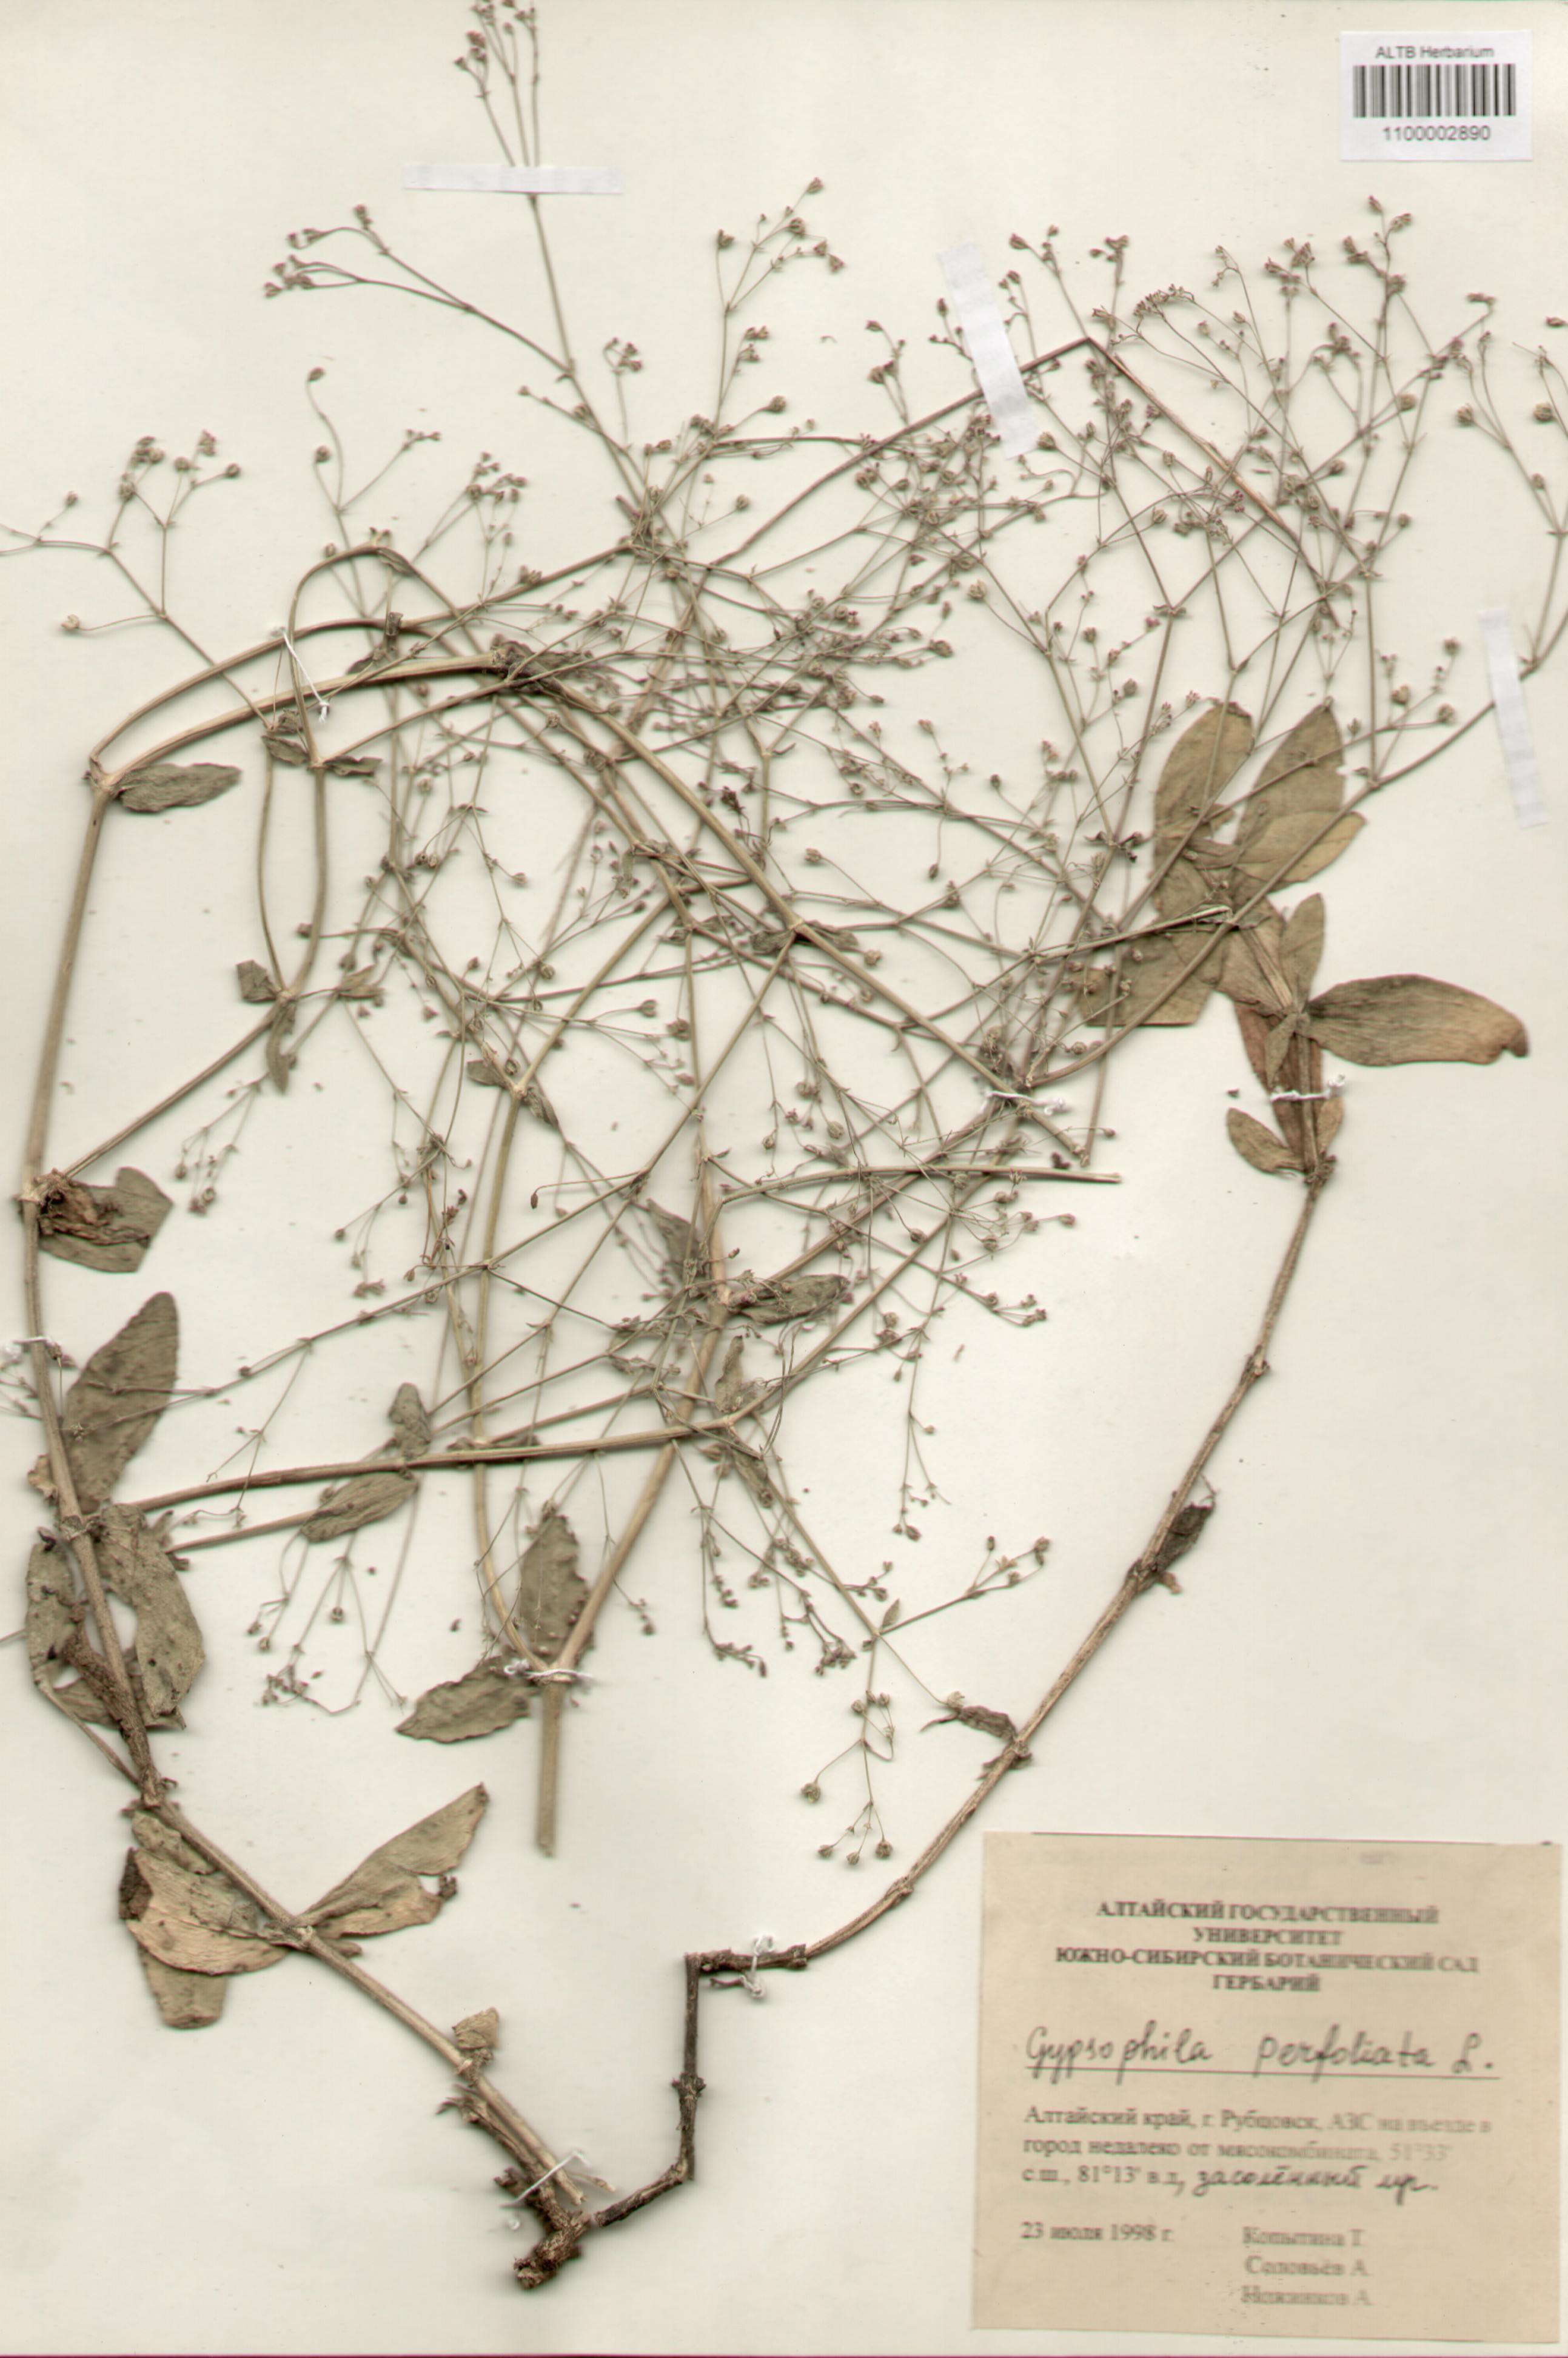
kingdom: Plantae
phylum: Tracheophyta
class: Magnoliopsida
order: Caryophyllales
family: Caryophyllaceae
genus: Gypsophila
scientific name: Gypsophila perfoliata
